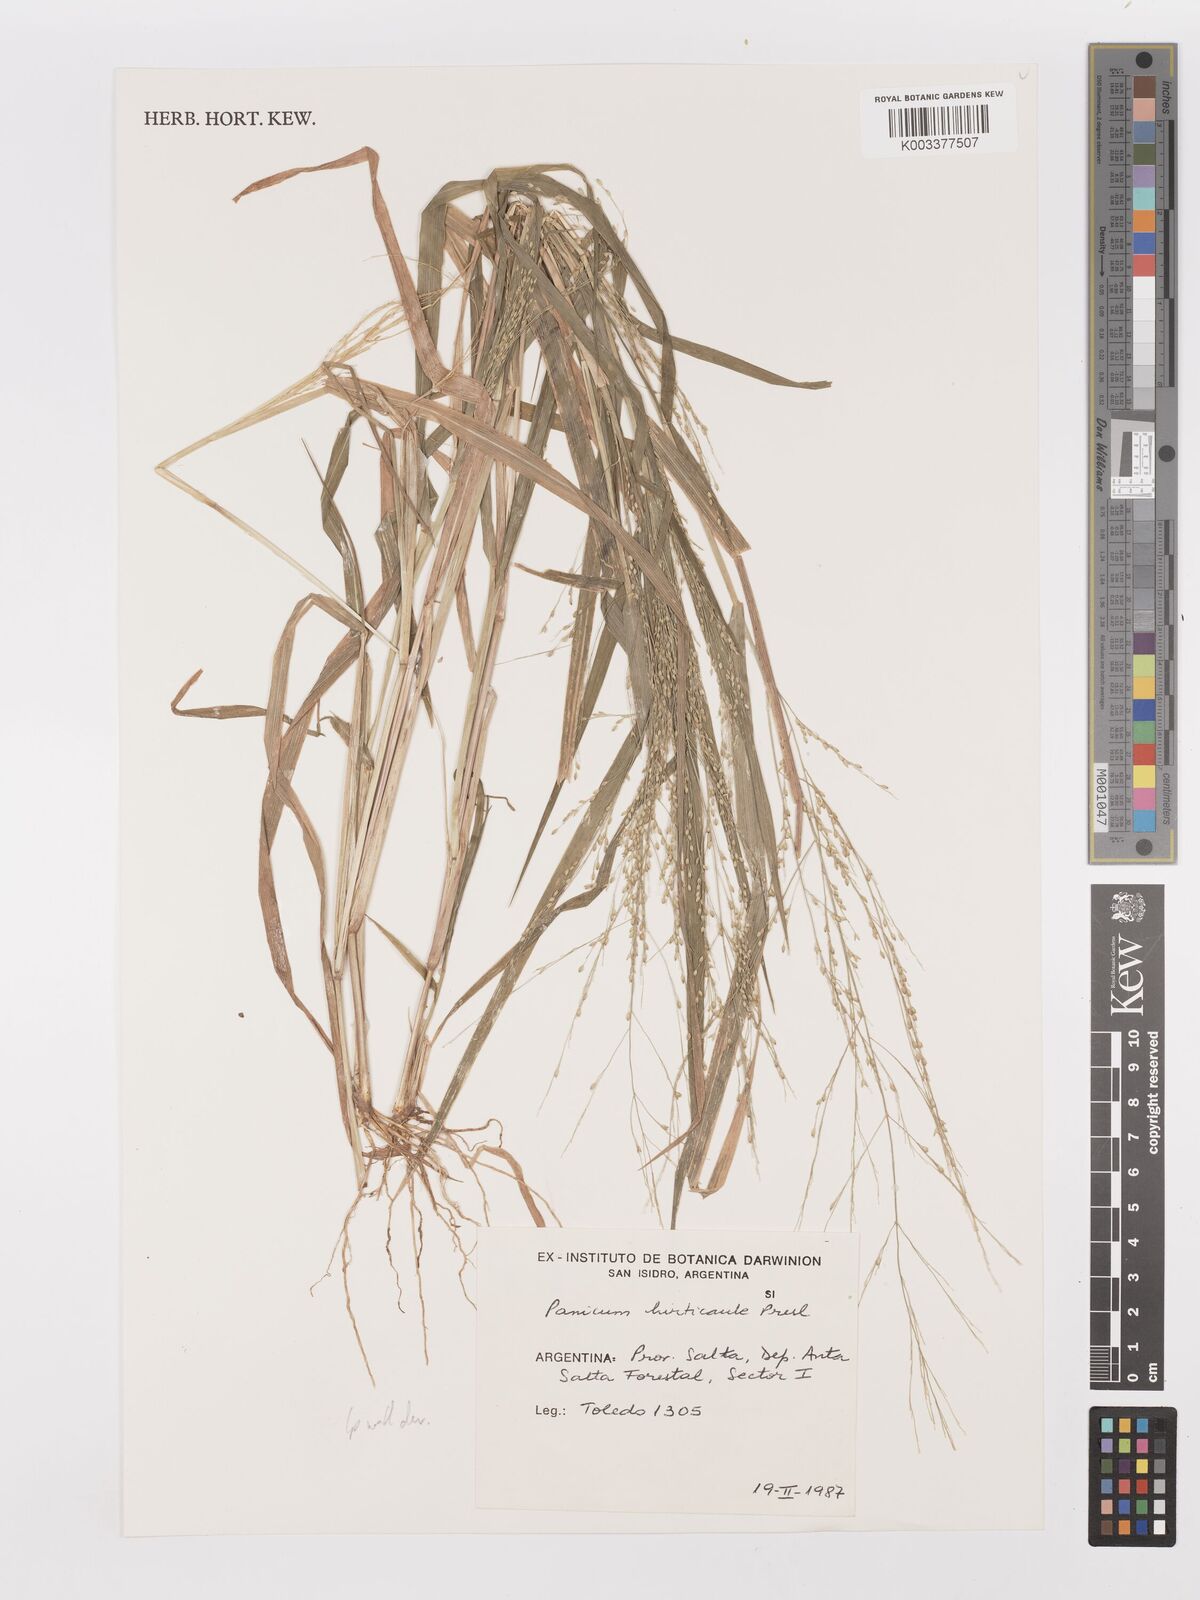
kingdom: Plantae
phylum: Tracheophyta
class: Liliopsida
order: Poales
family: Poaceae
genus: Panicum
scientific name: Panicum stramineum
